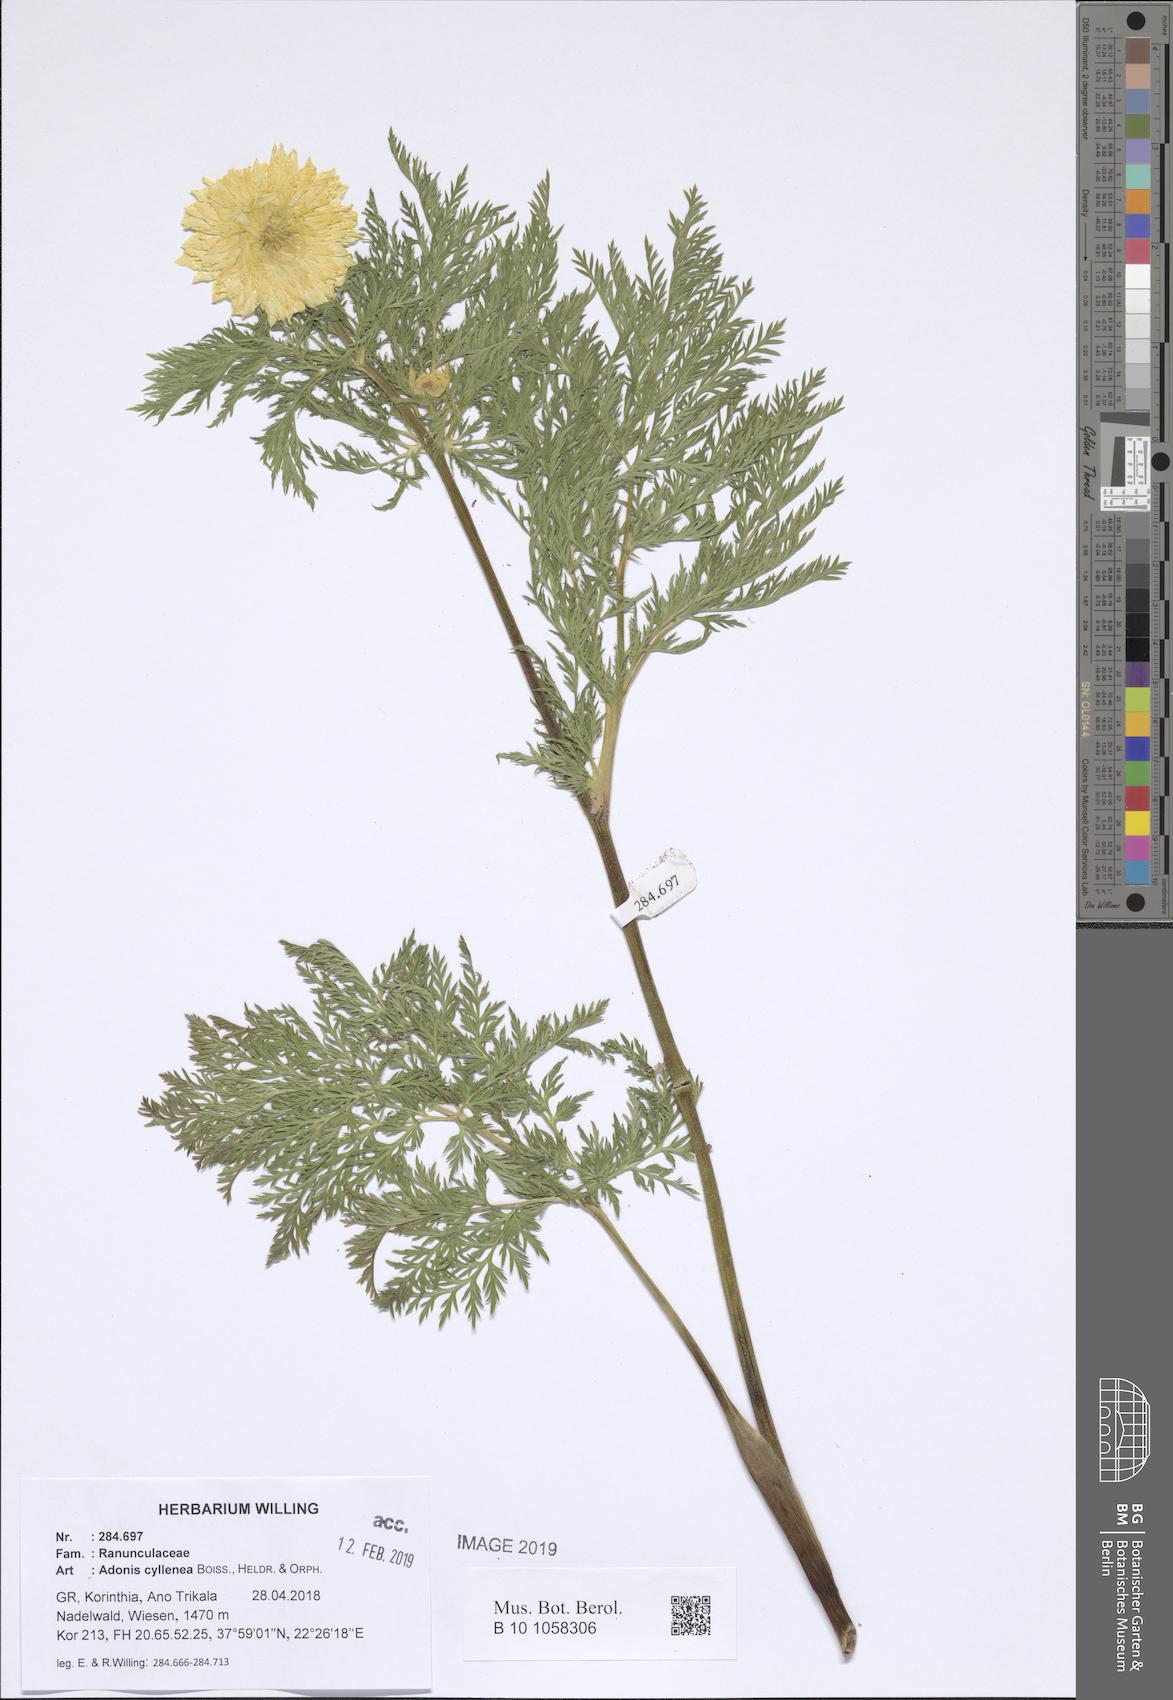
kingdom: Plantae
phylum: Tracheophyta
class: Magnoliopsida
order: Ranunculales
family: Ranunculaceae
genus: Adonis
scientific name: Adonis cyllenea
